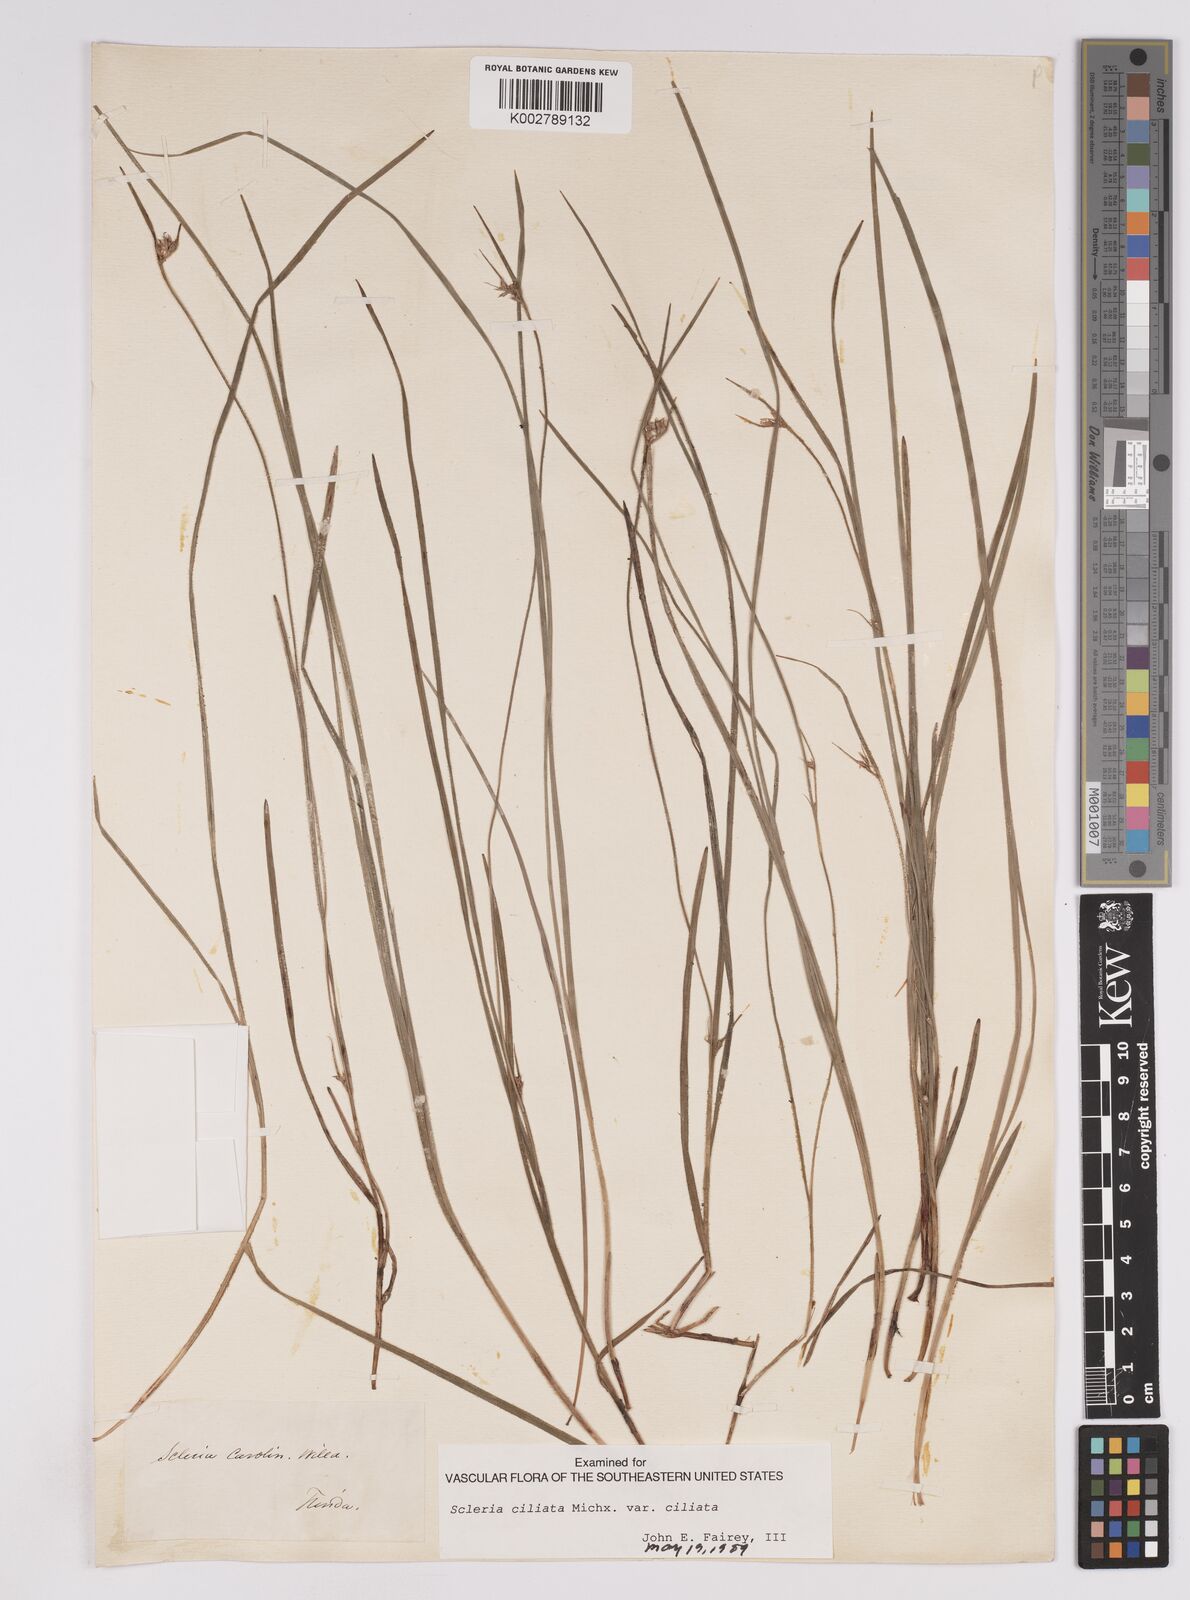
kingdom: Plantae
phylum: Tracheophyta
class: Liliopsida
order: Poales
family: Cyperaceae
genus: Scleria
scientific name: Scleria
